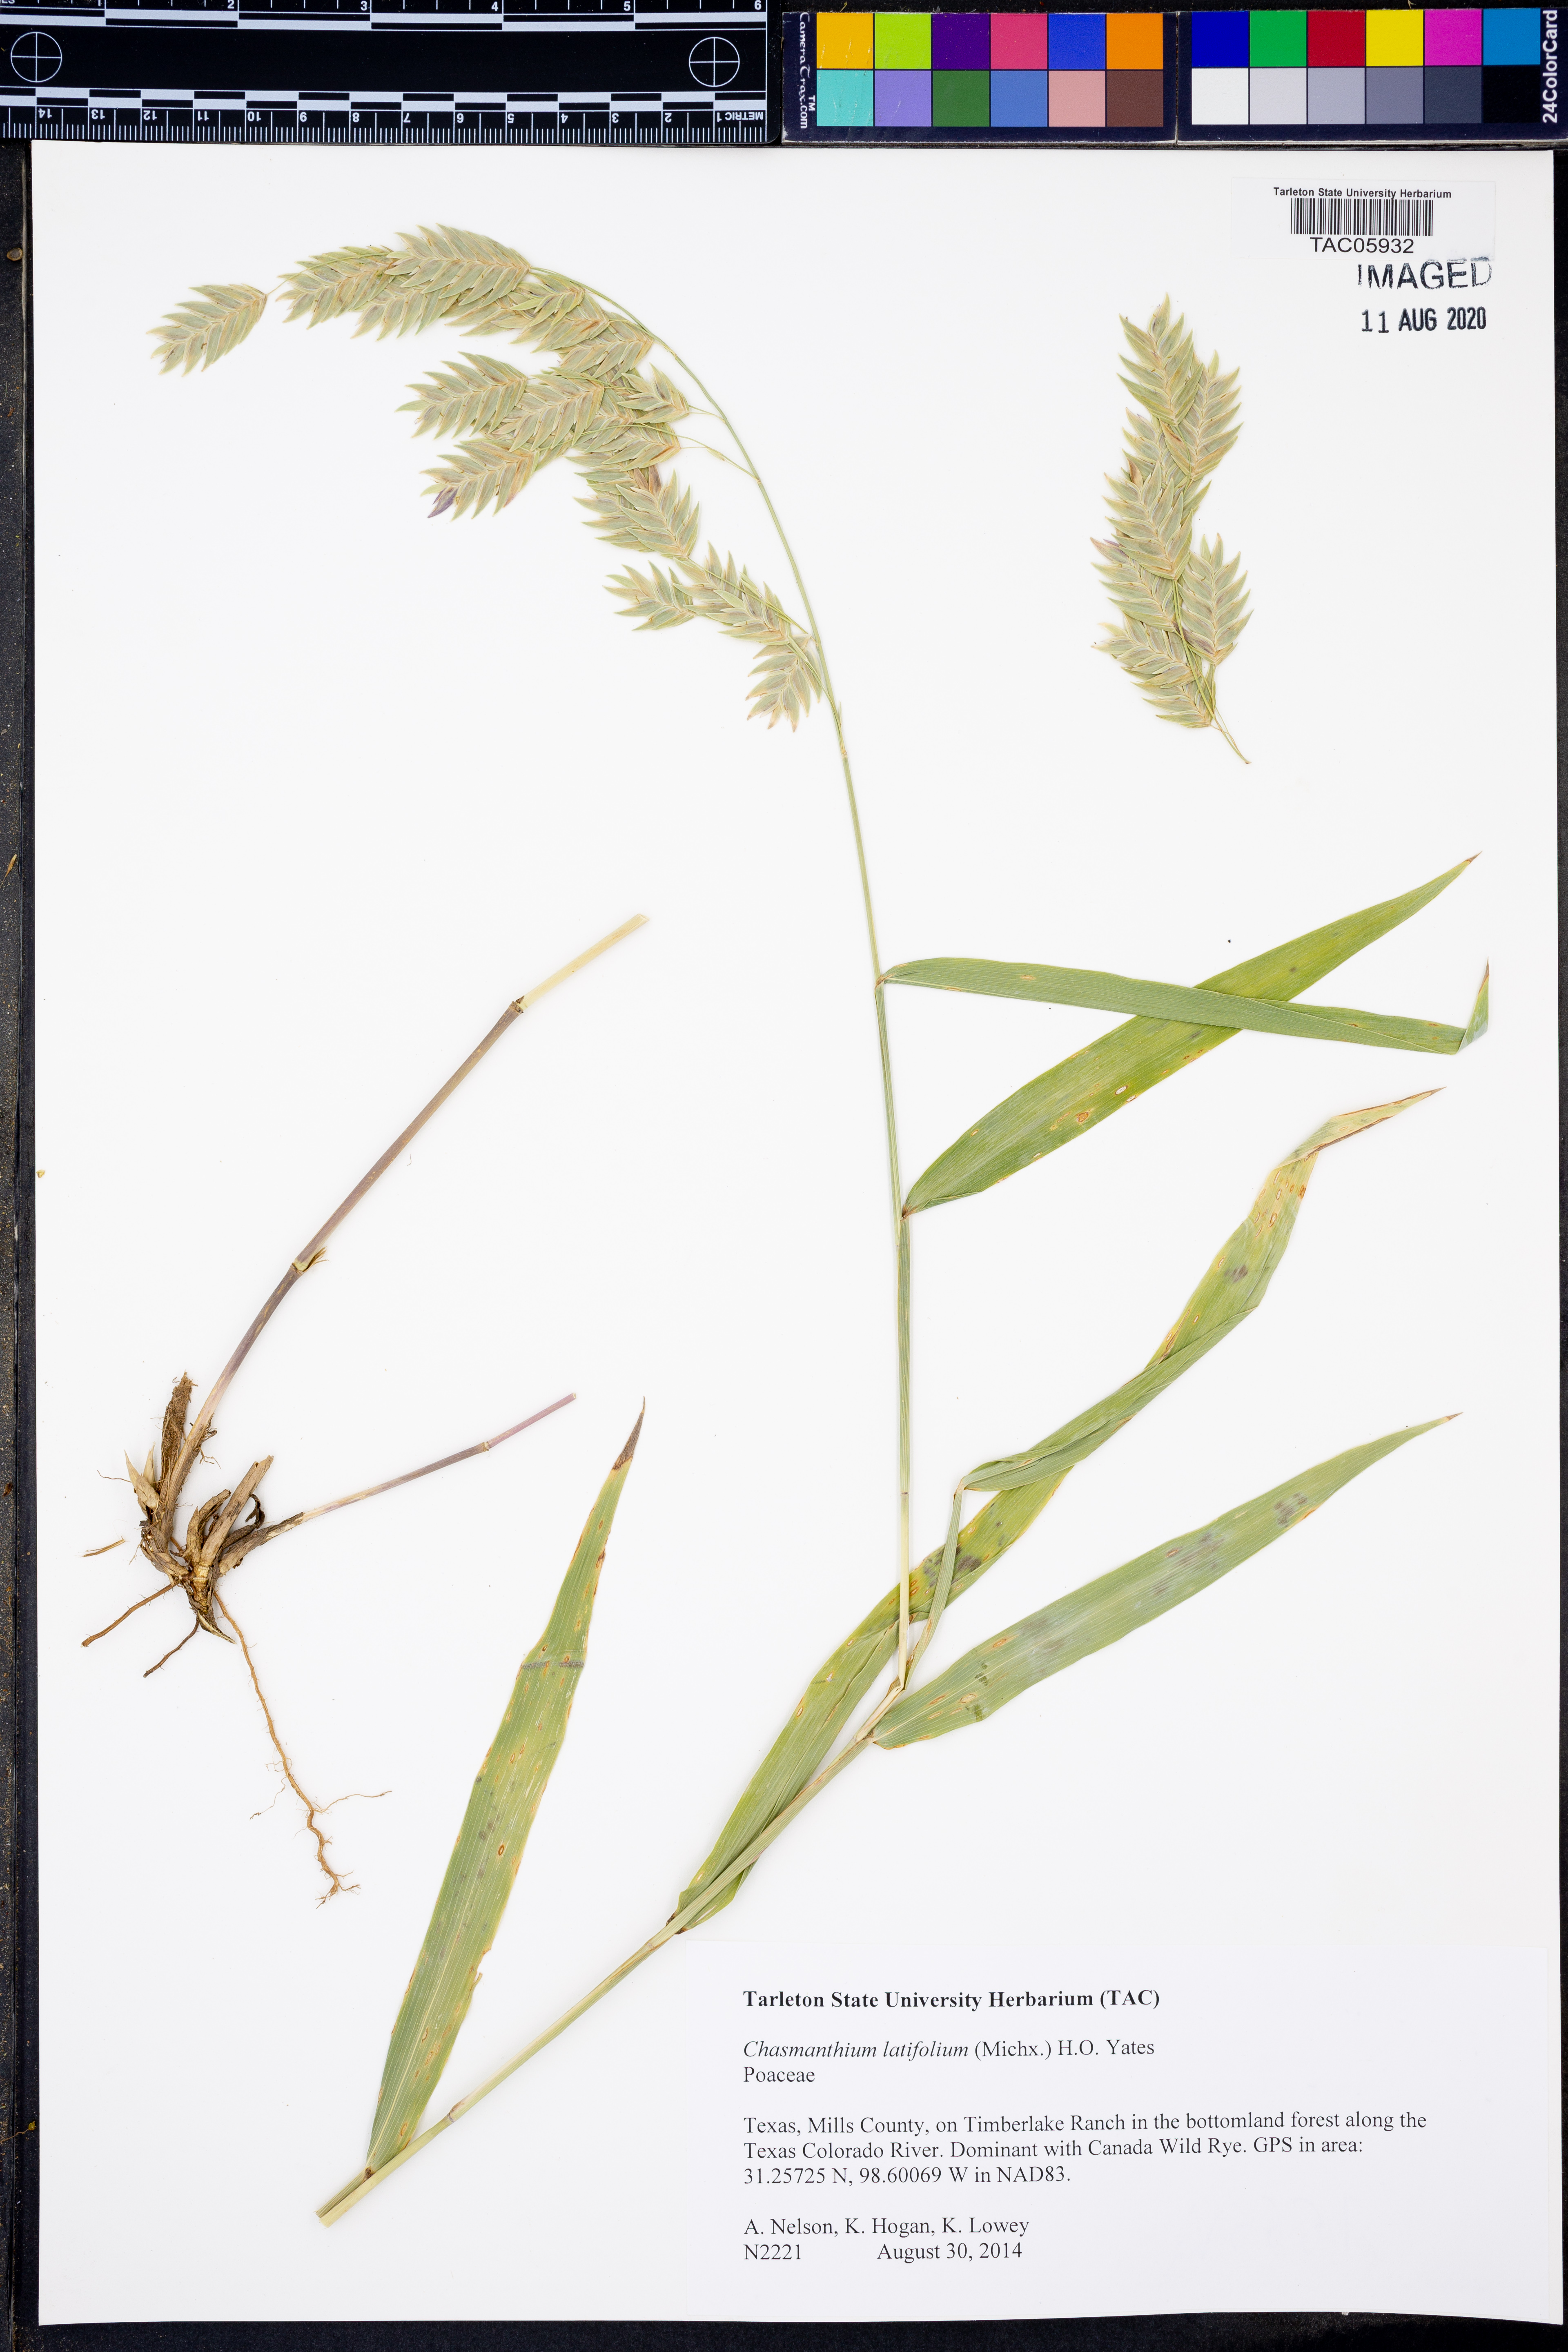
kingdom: Plantae
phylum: Tracheophyta
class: Liliopsida
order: Poales
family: Poaceae
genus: Chasmanthium
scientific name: Chasmanthium latifolium
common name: Broad-leaved chasmanthium
